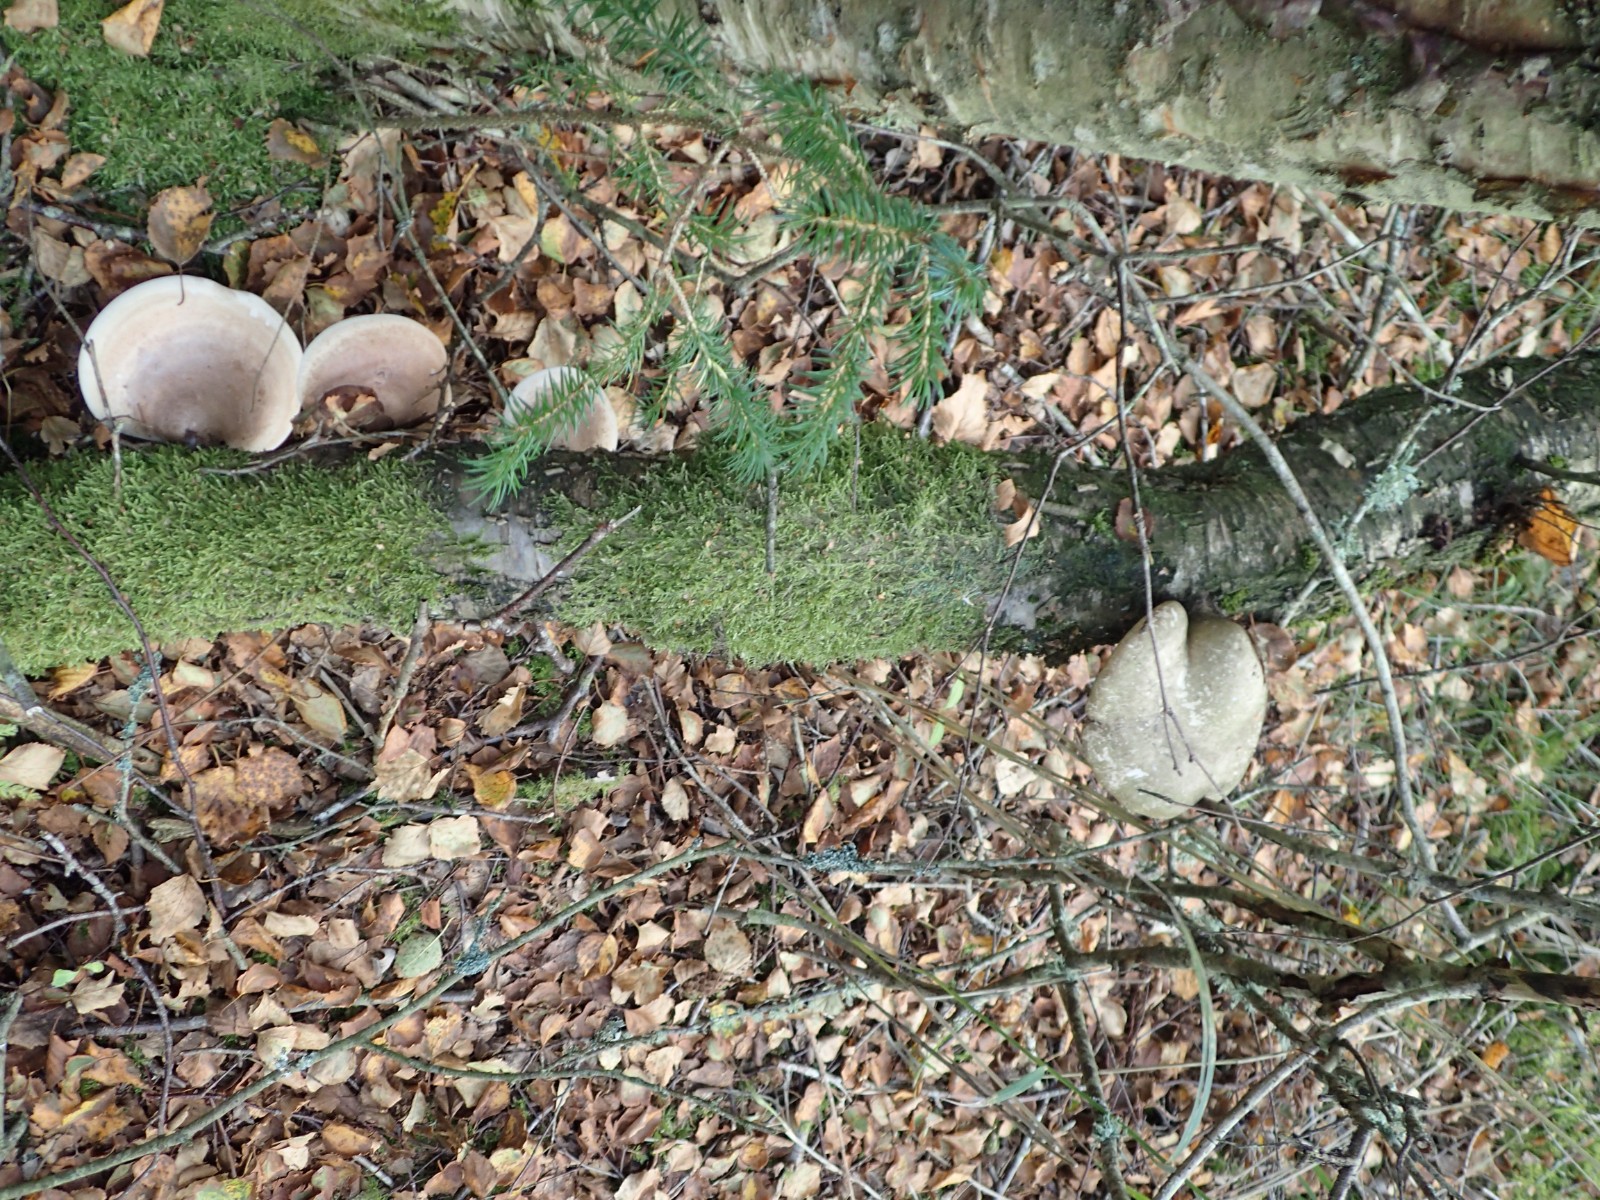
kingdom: Fungi
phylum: Basidiomycota
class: Agaricomycetes
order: Polyporales
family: Fomitopsidaceae
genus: Fomitopsis
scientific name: Fomitopsis betulina
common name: birkeporesvamp
